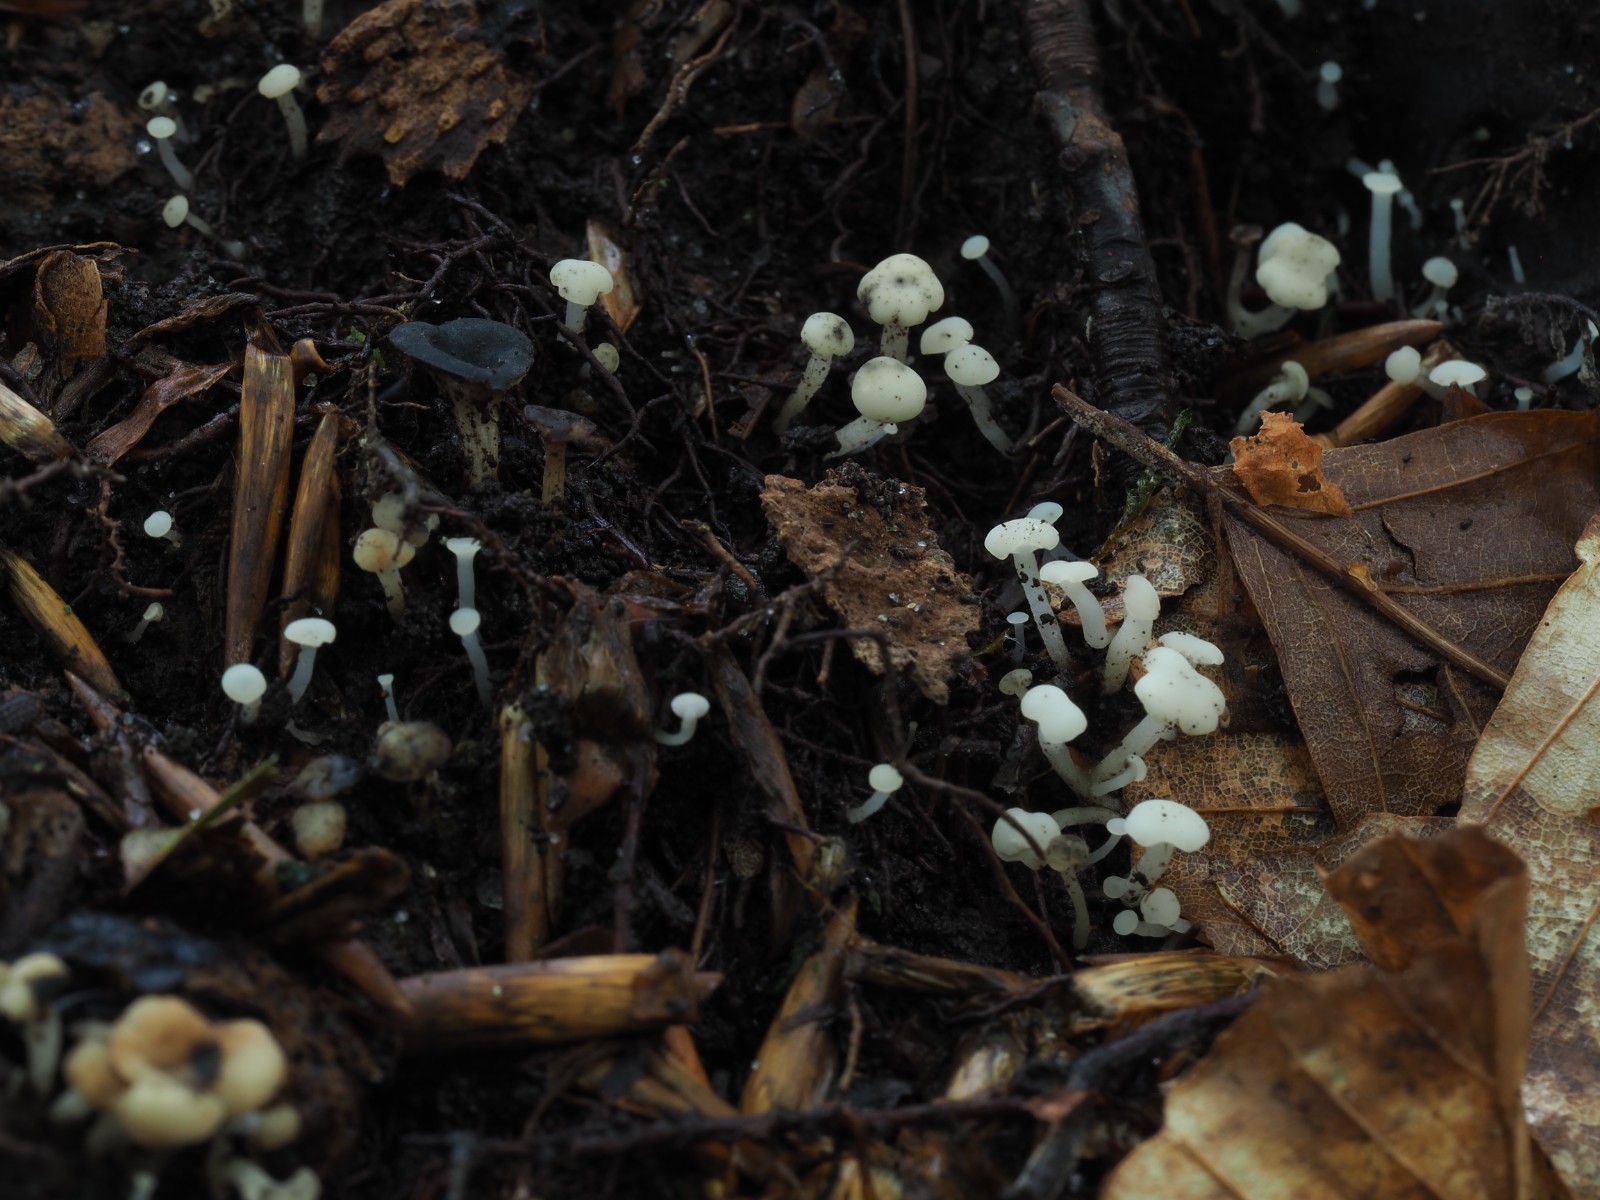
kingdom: Fungi
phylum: Ascomycota
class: Leotiomycetes
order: Helotiales
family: Tricladiaceae
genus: Cudoniella
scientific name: Cudoniella acicularis
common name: ege-dyndskive
